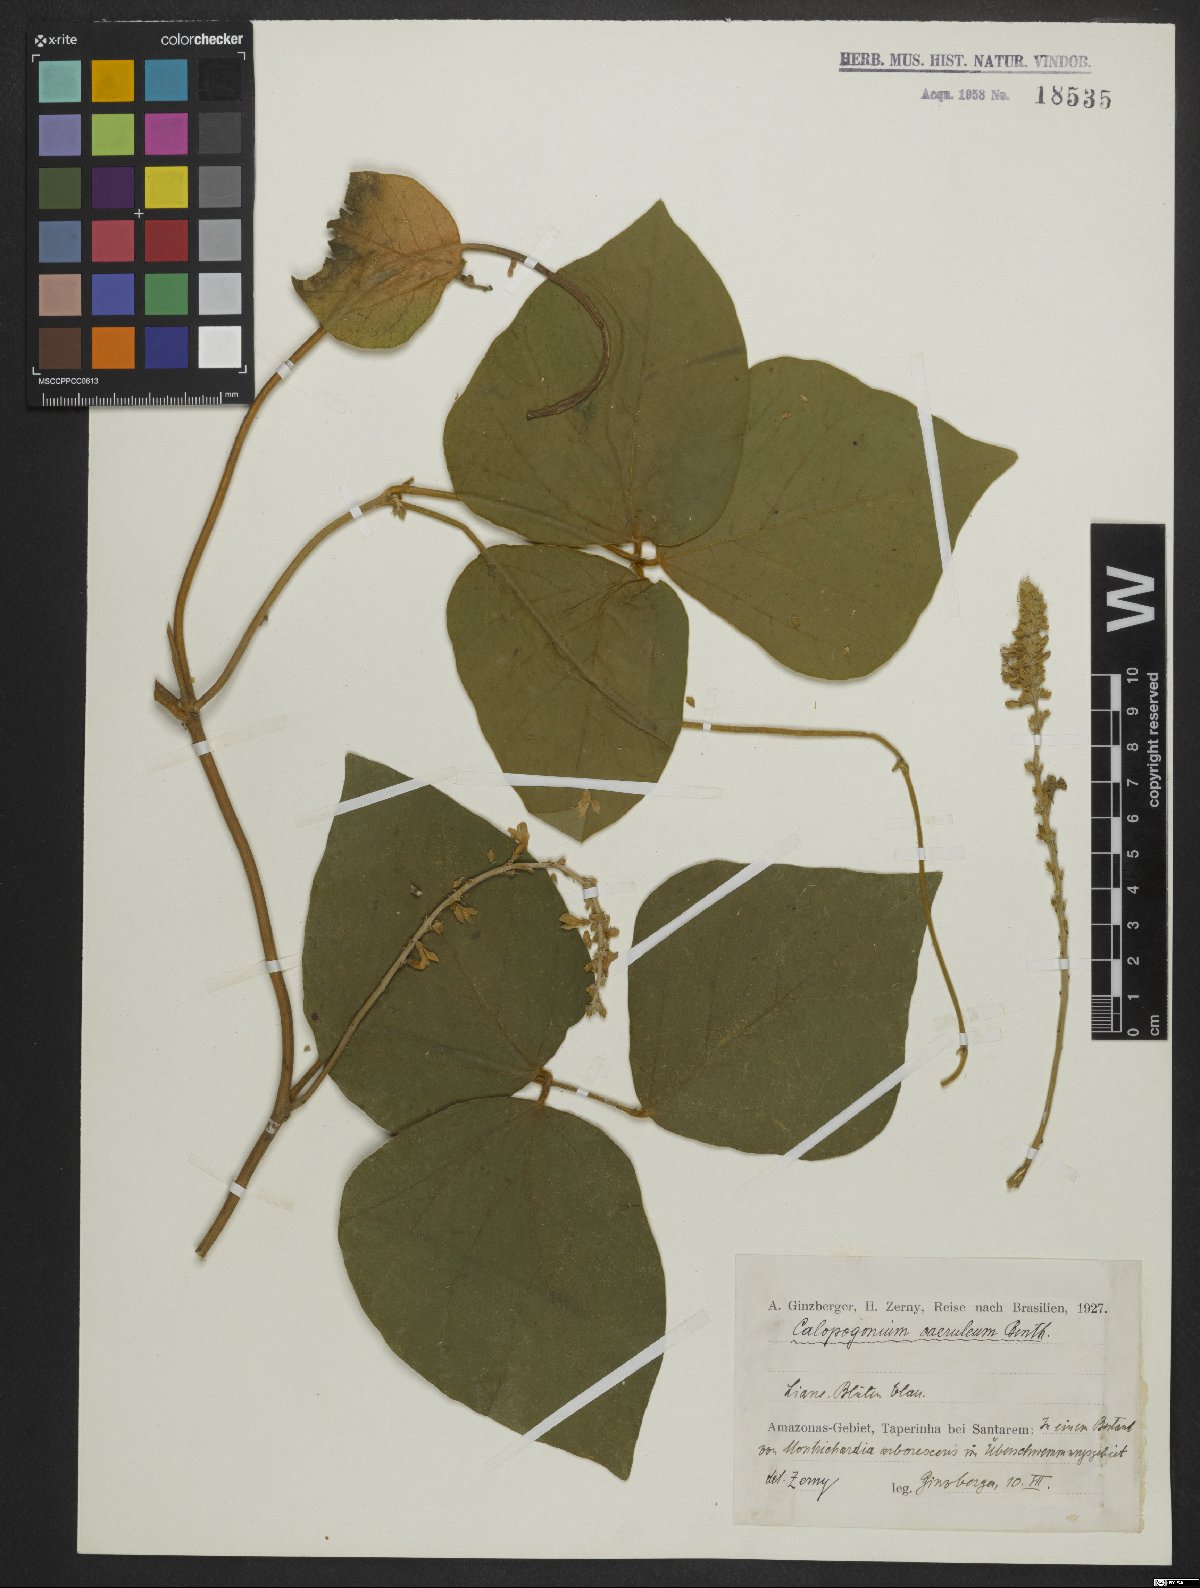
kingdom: Plantae
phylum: Tracheophyta
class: Magnoliopsida
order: Fabales
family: Fabaceae
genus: Calopogonium
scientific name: Calopogonium caeruleum
